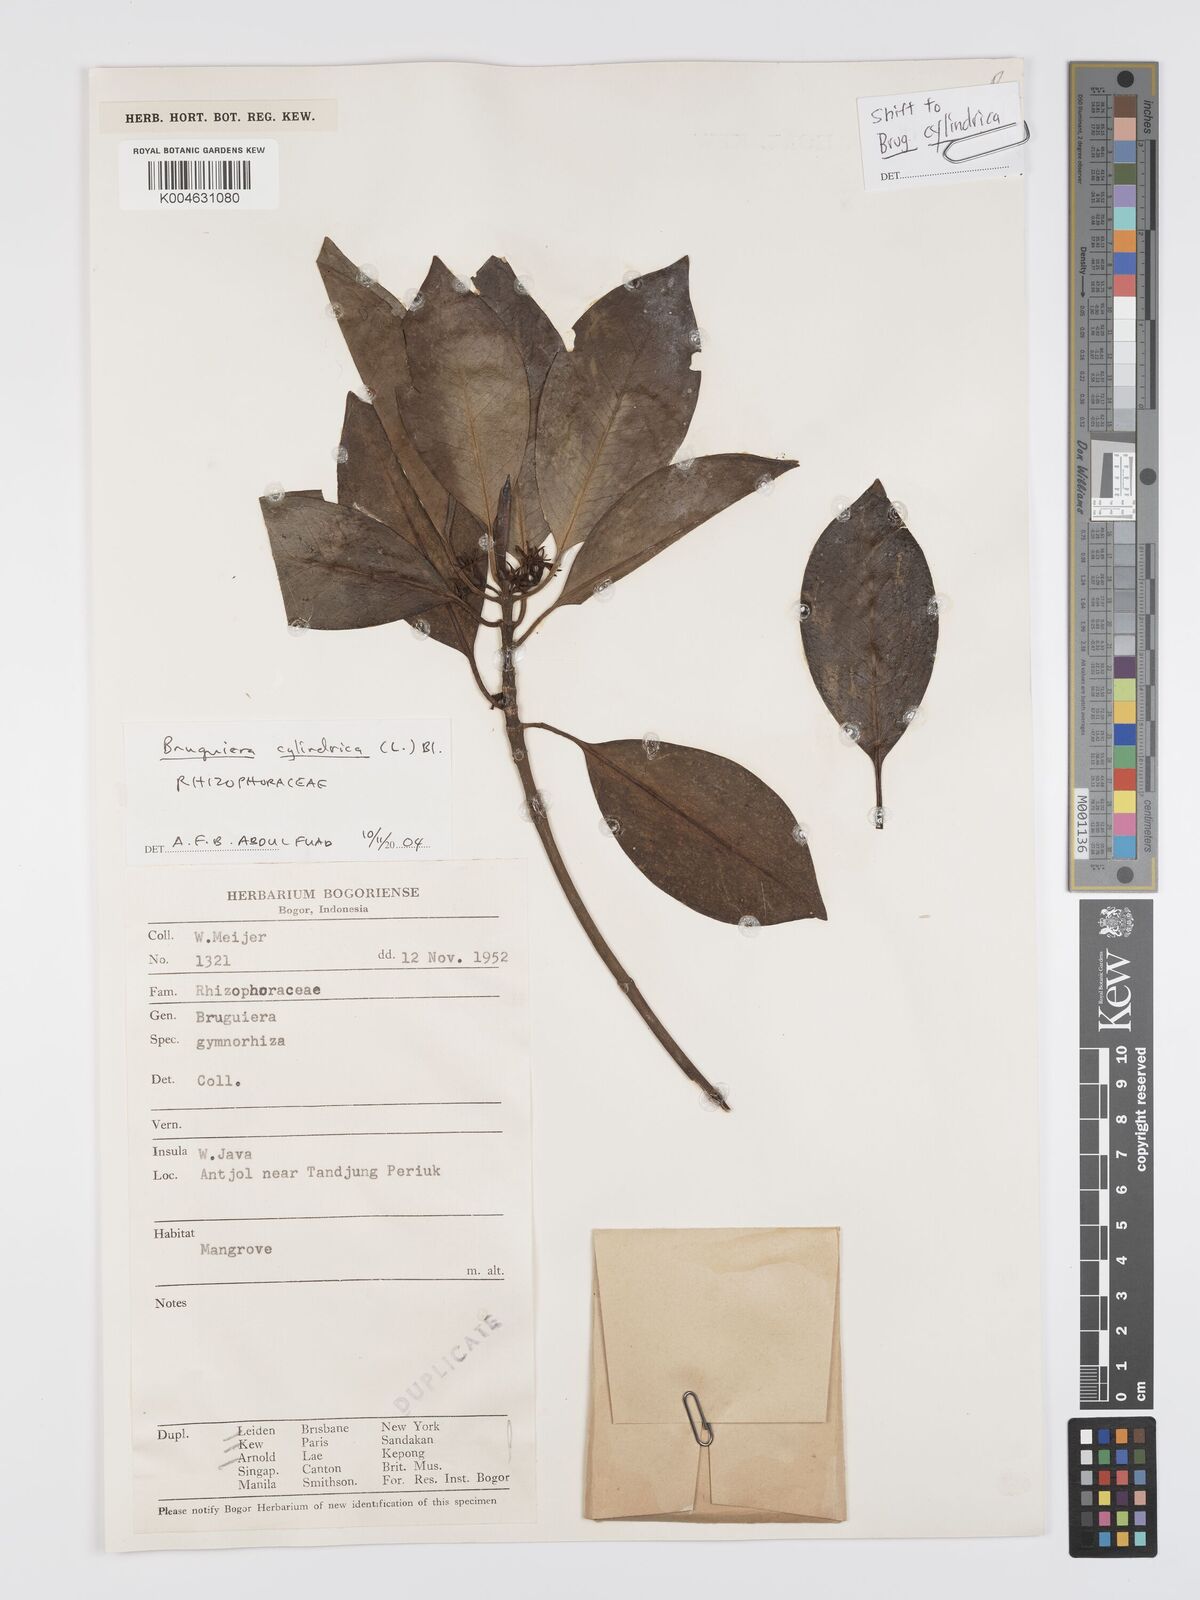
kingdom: Plantae
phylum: Tracheophyta
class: Magnoliopsida
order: Malpighiales
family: Rhizophoraceae
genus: Bruguiera
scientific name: Bruguiera cylindrica
